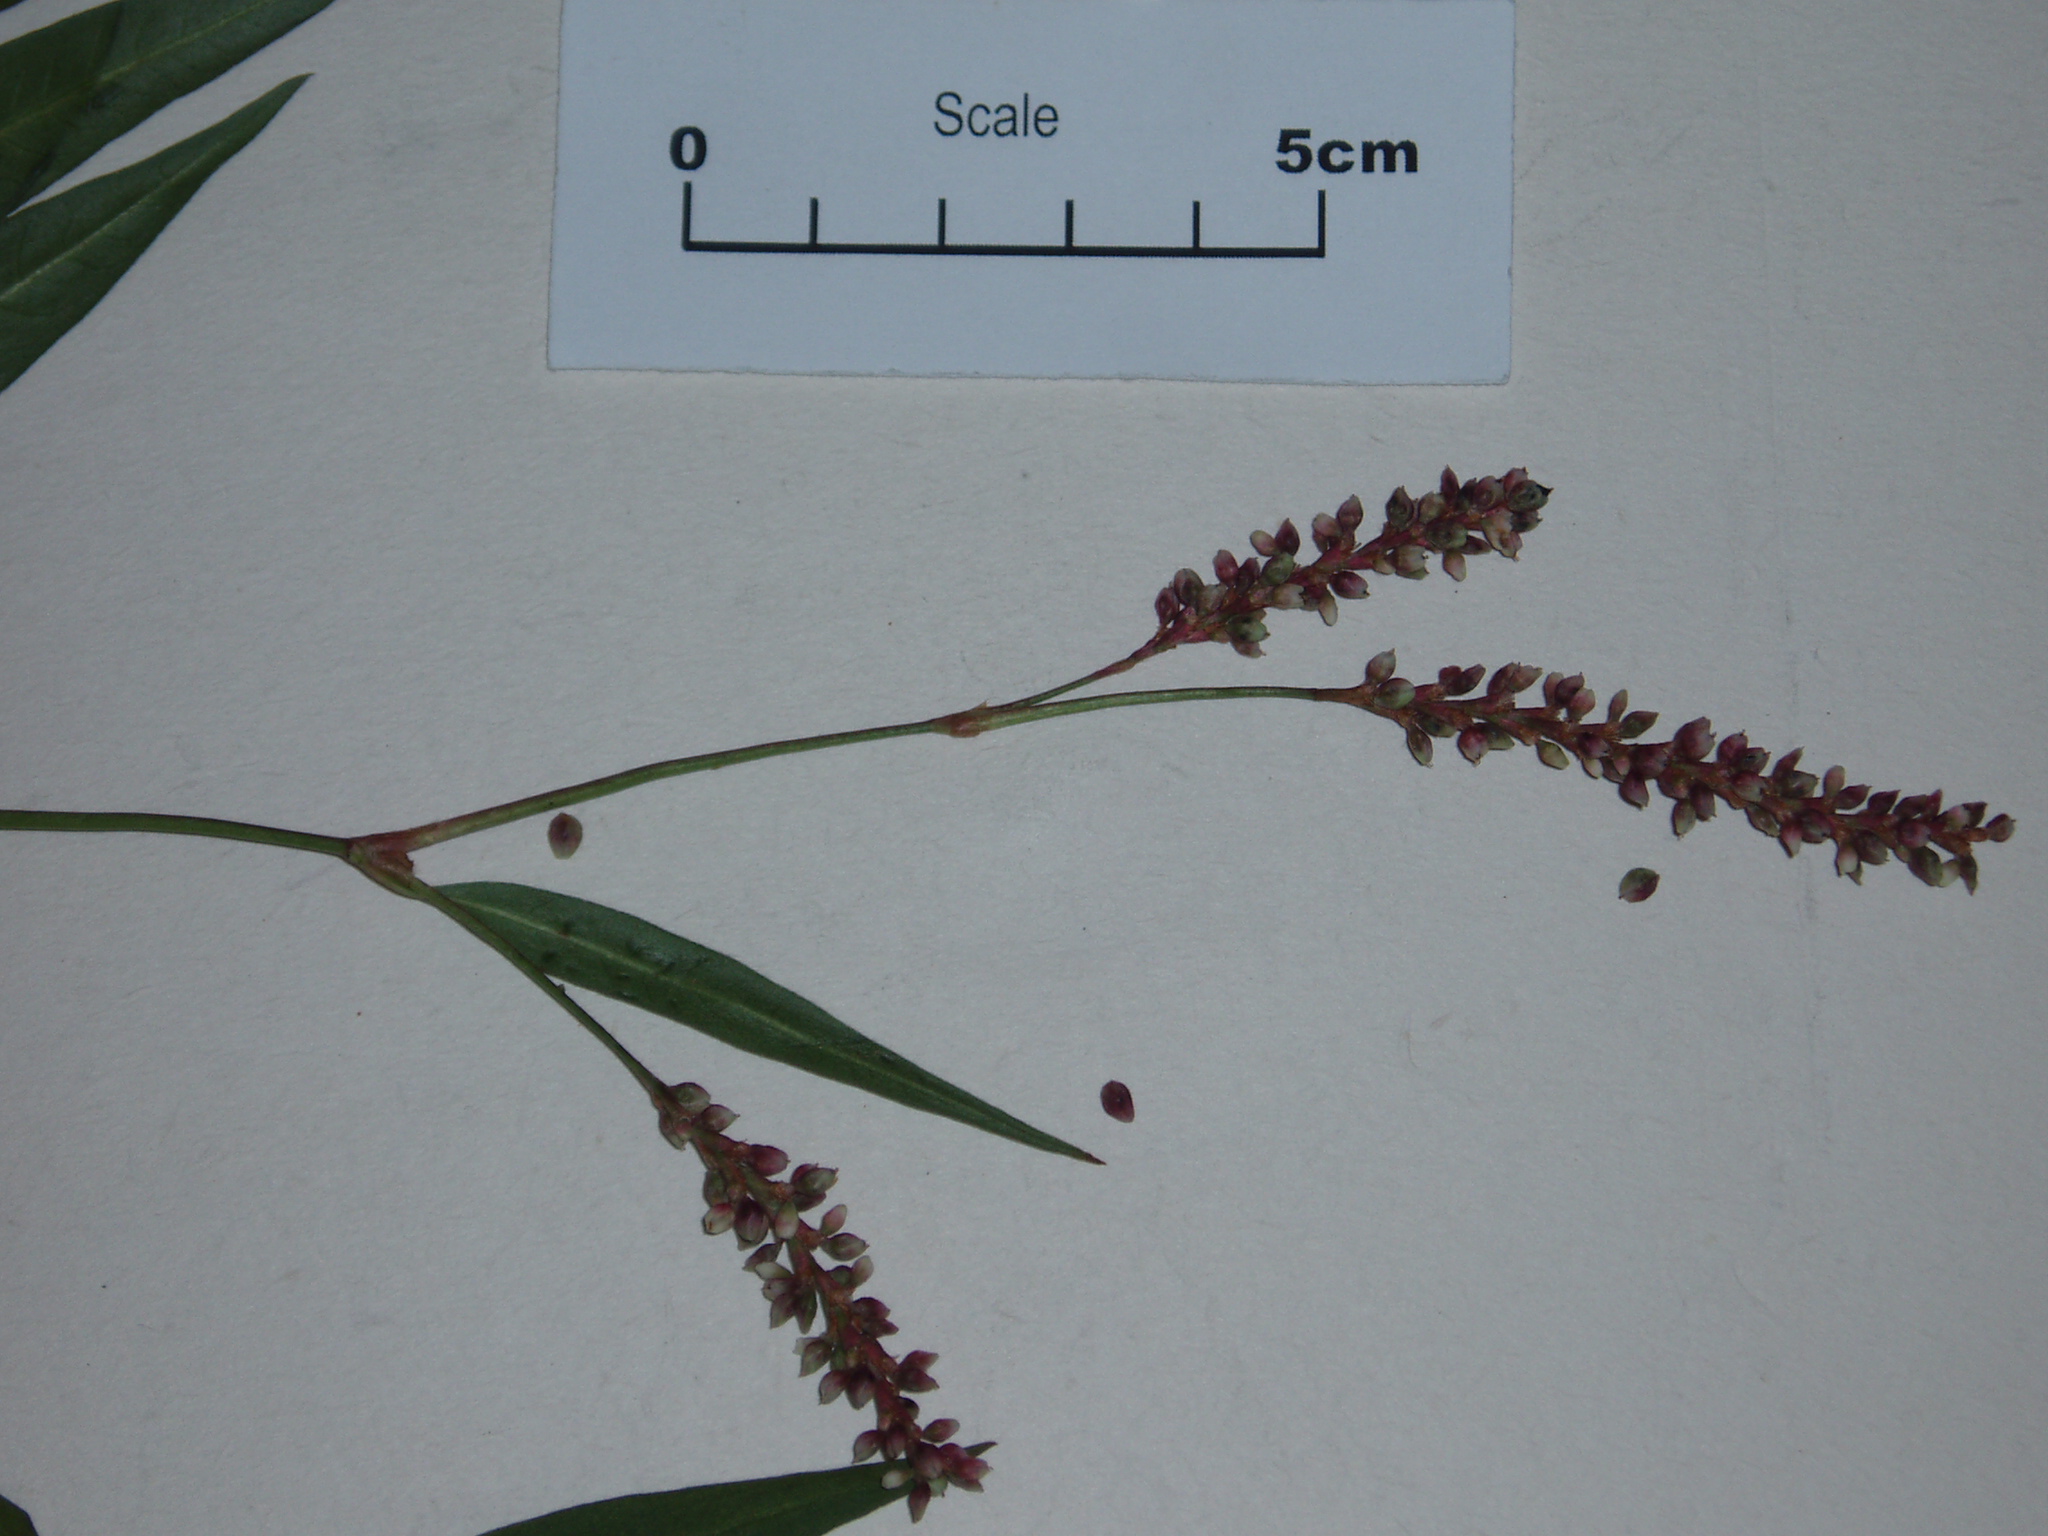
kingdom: Plantae
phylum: Tracheophyta
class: Magnoliopsida
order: Caryophyllales
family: Polygonaceae
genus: Persicaria
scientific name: Persicaria maculosa
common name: Redshank
